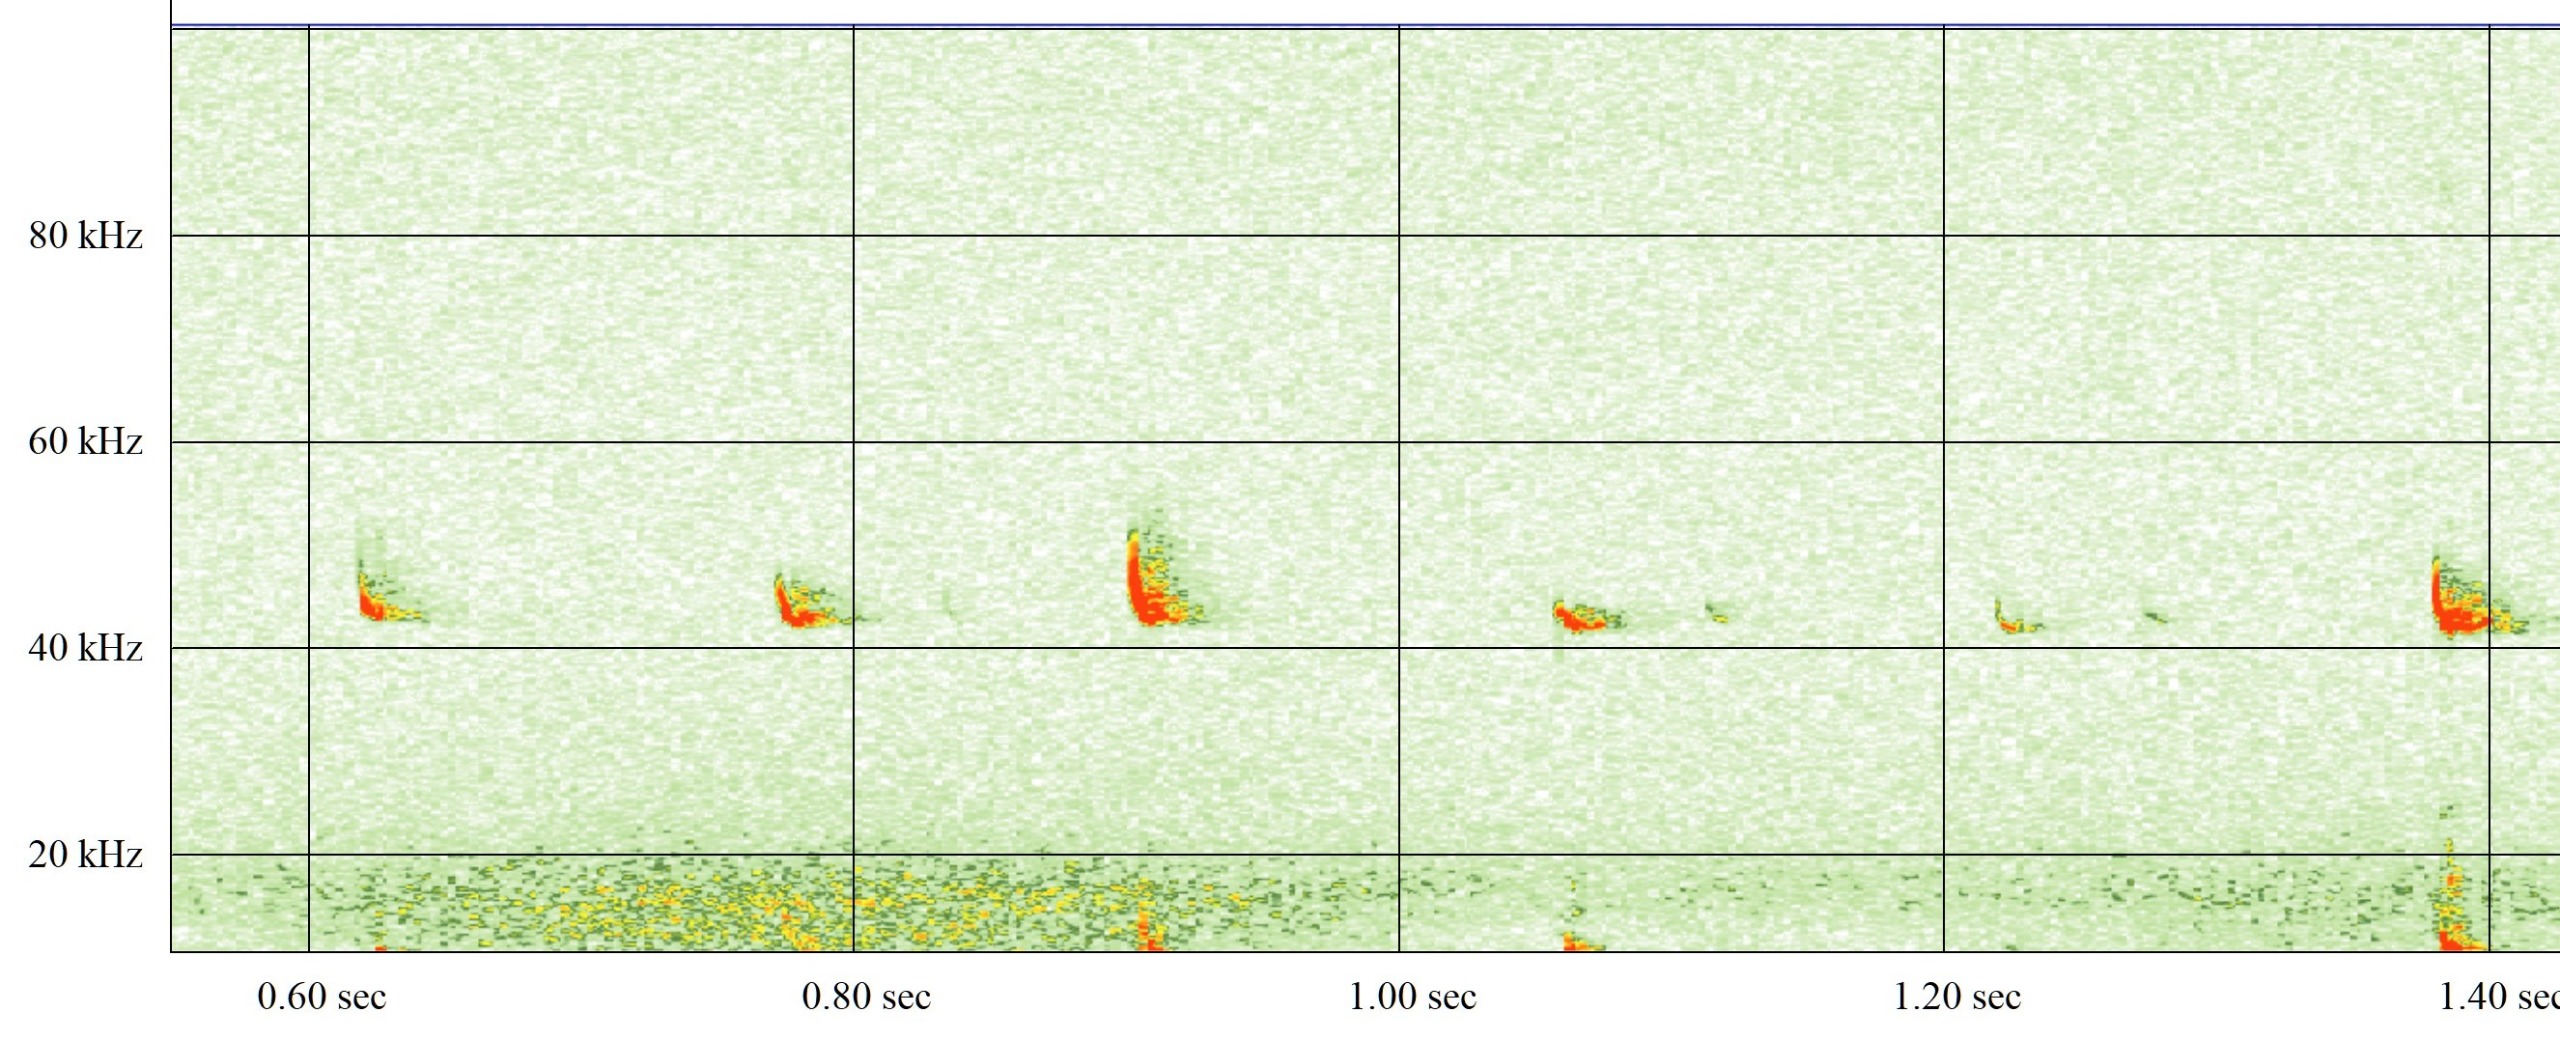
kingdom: Animalia
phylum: Chordata
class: Mammalia
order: Chiroptera
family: Vespertilionidae
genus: Pipistrellus
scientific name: Pipistrellus nathusii
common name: Troldflagermus
